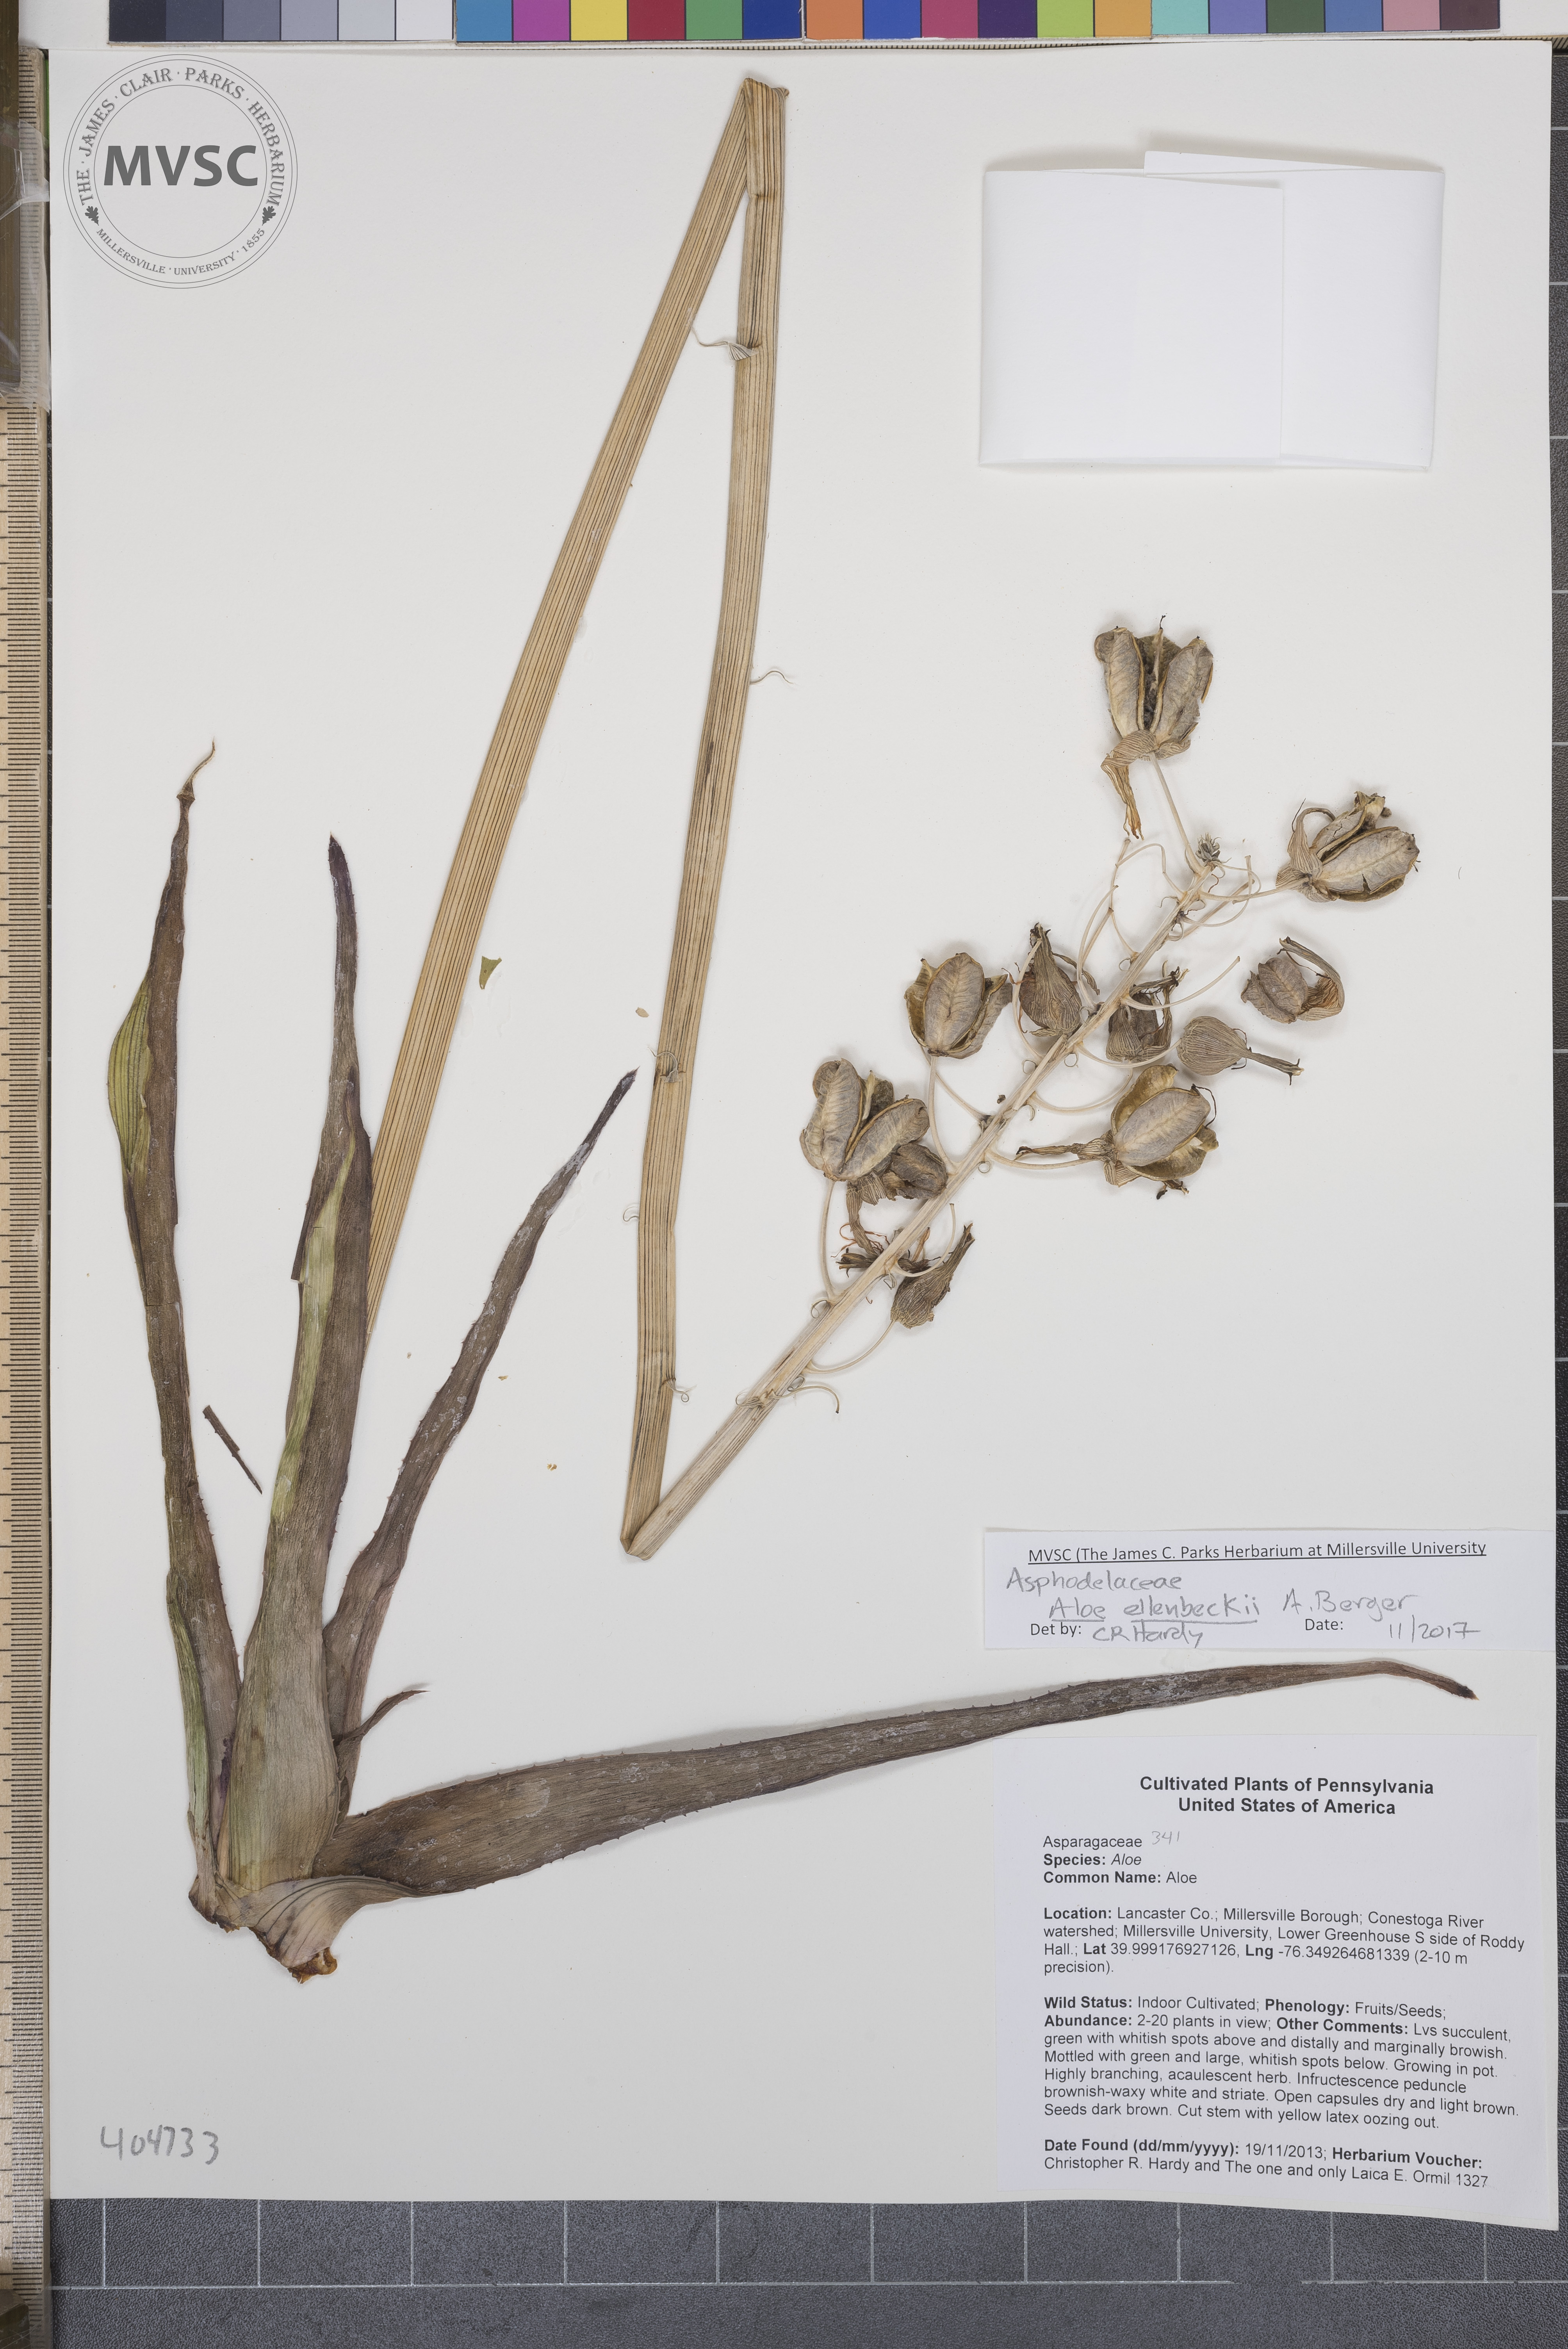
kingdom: Plantae
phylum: Tracheophyta
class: Liliopsida
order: Asparagales
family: Asphodelaceae
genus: Aloe
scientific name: Aloe ellenbeckii
